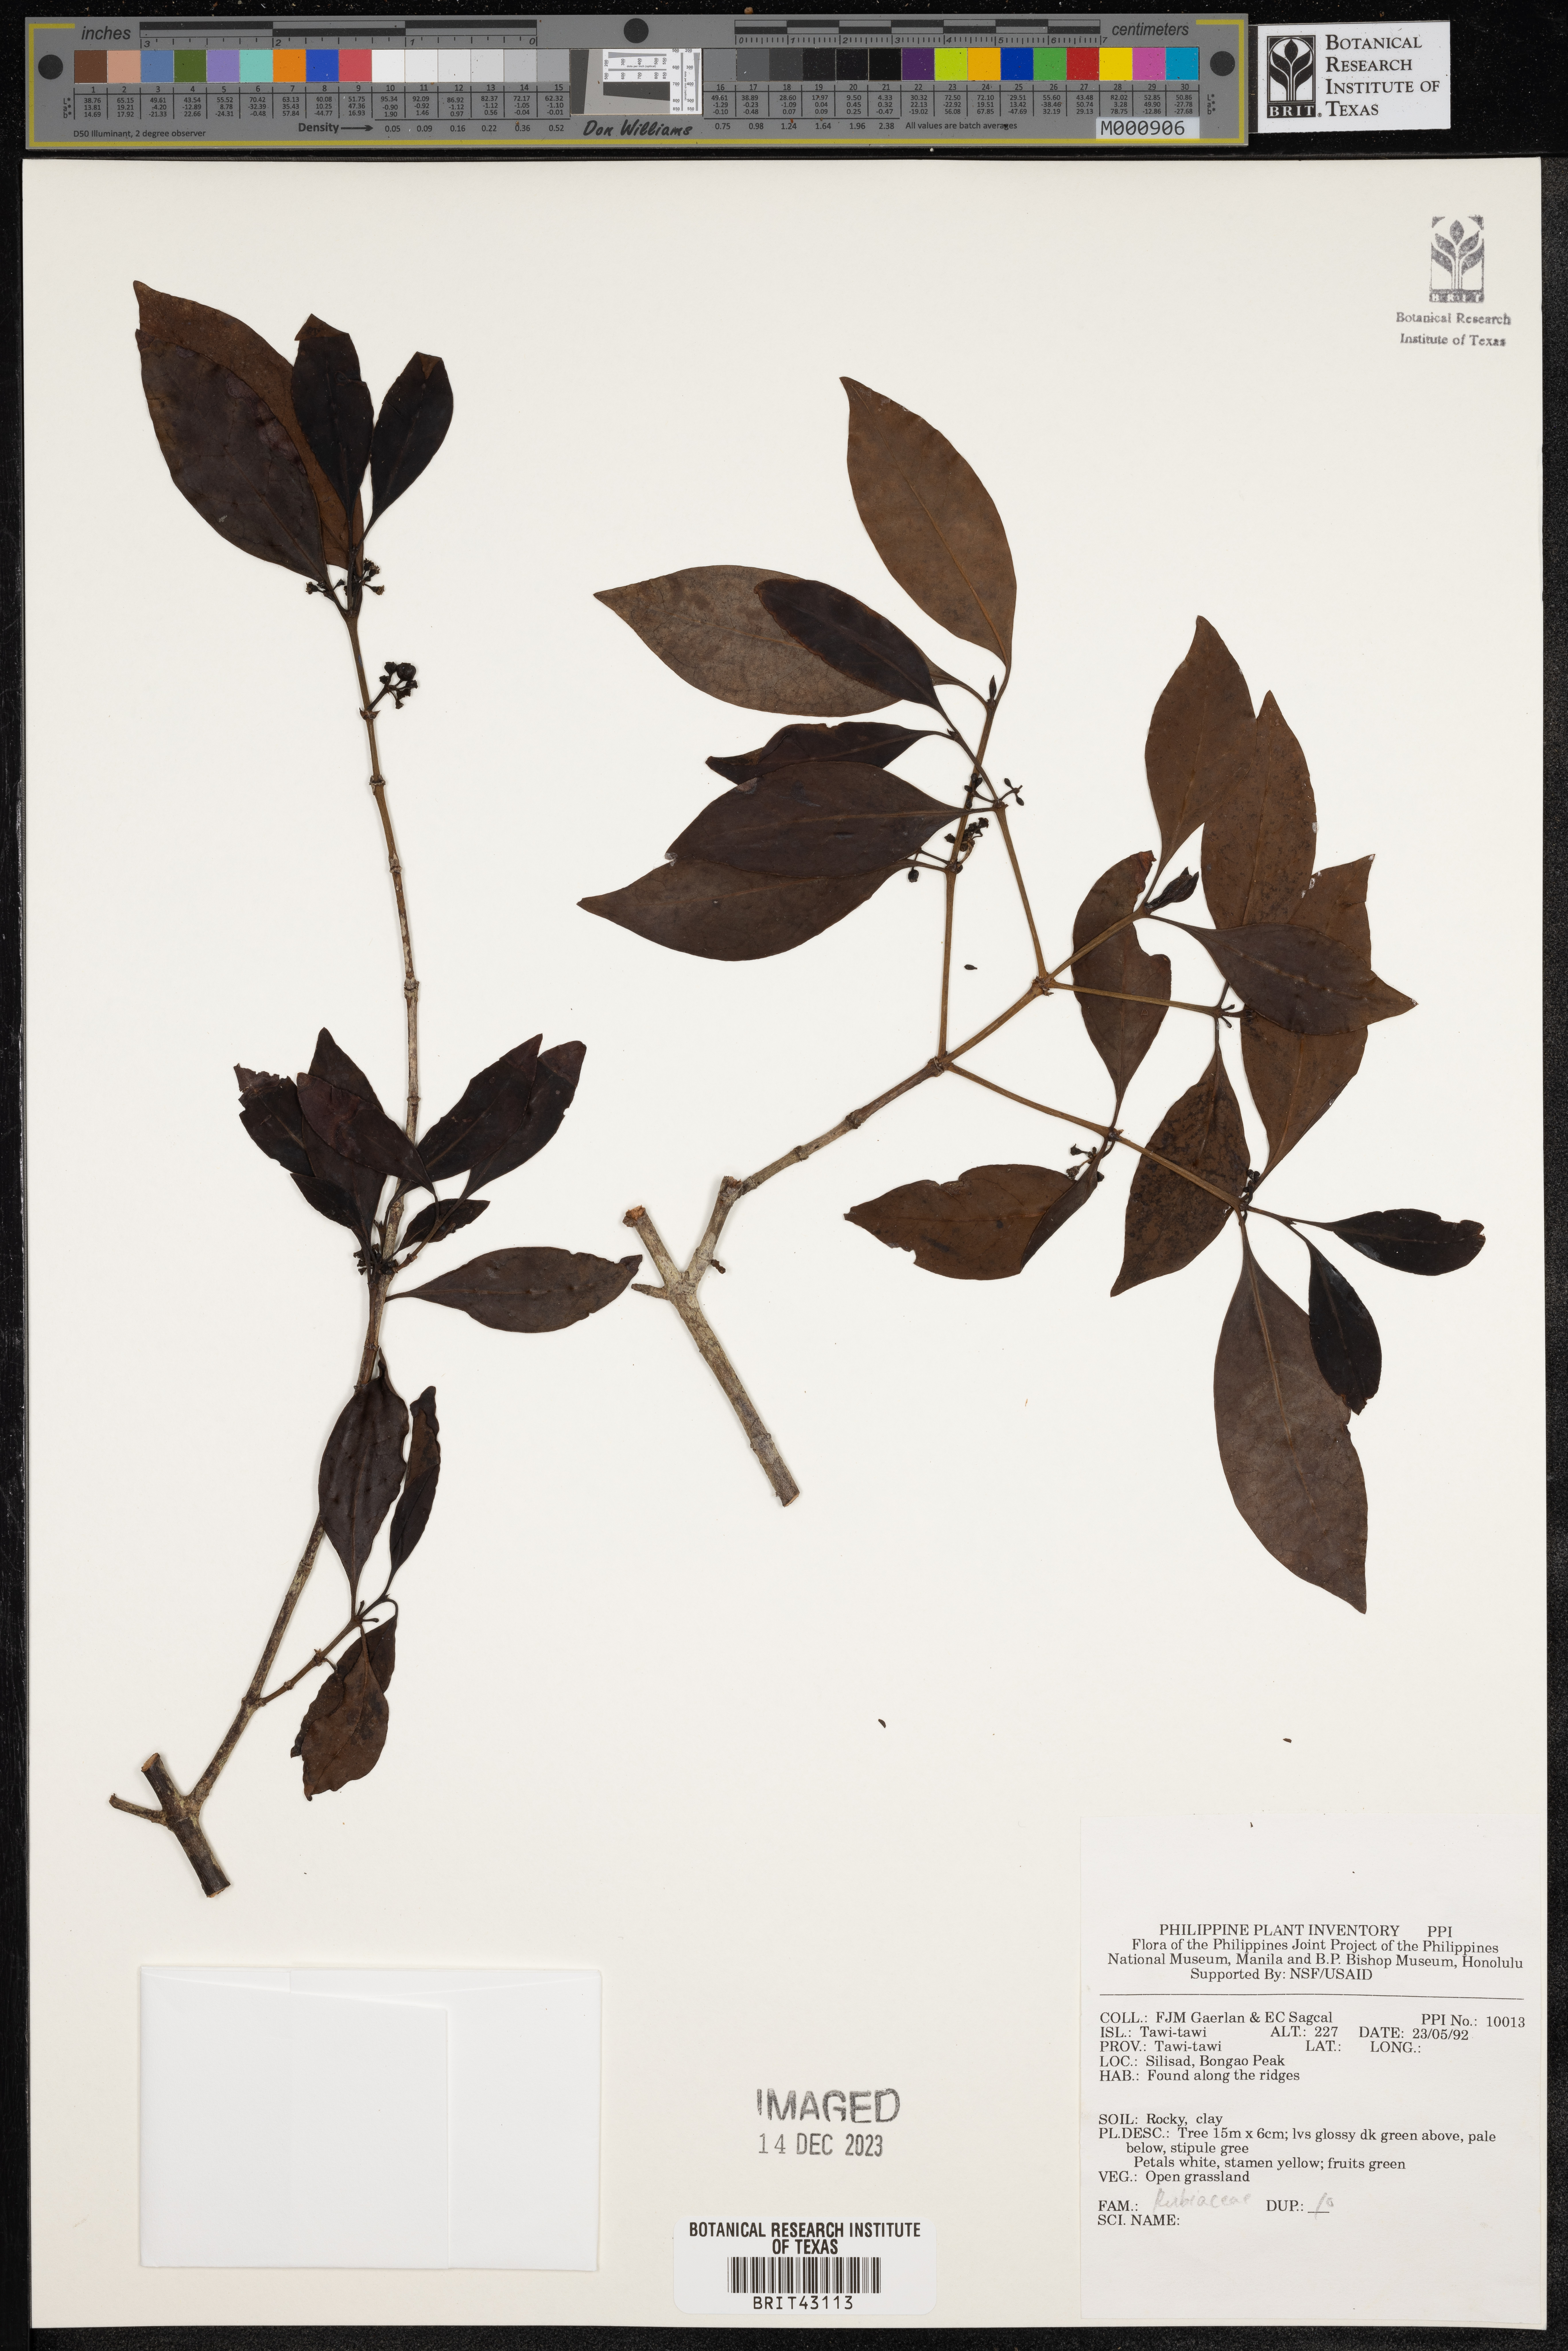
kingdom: Plantae
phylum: Tracheophyta
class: Magnoliopsida
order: Gentianales
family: Rubiaceae
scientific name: Rubiaceae
